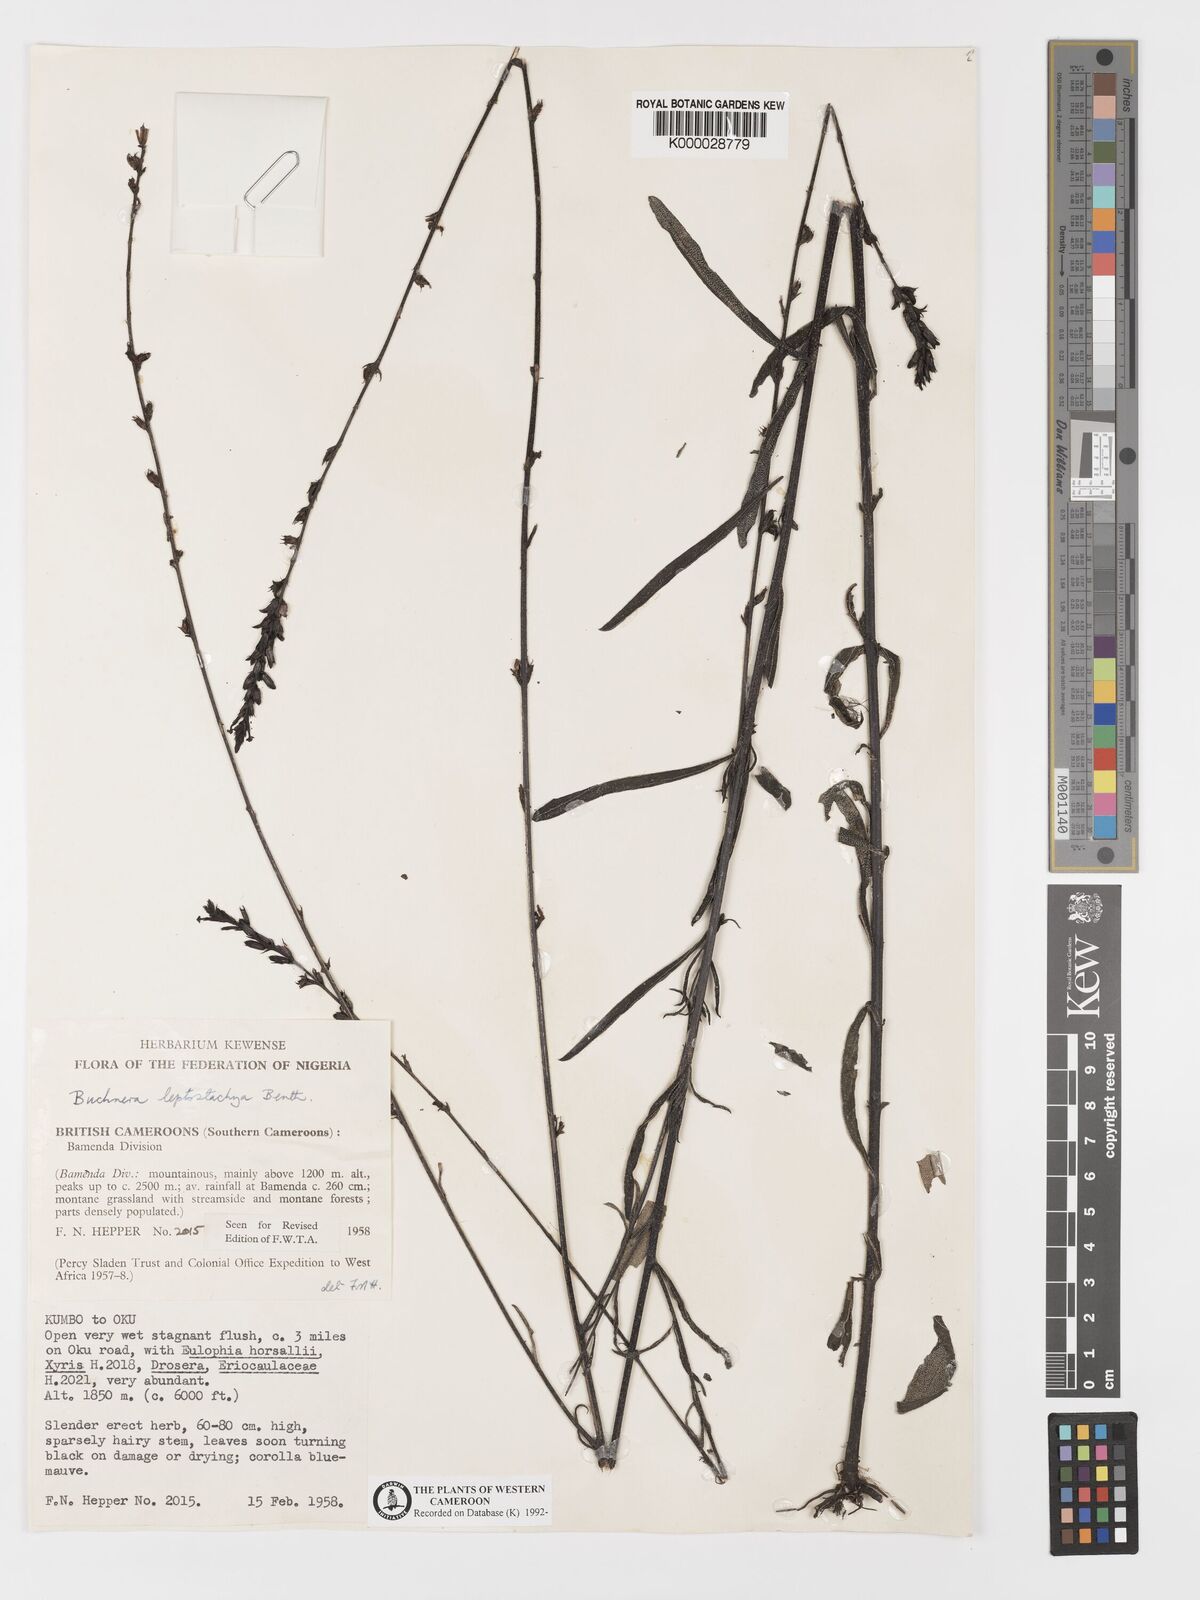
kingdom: Plantae
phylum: Tracheophyta
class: Magnoliopsida
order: Lamiales
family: Orobanchaceae
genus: Buchnera
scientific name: Buchnera leptostachya
